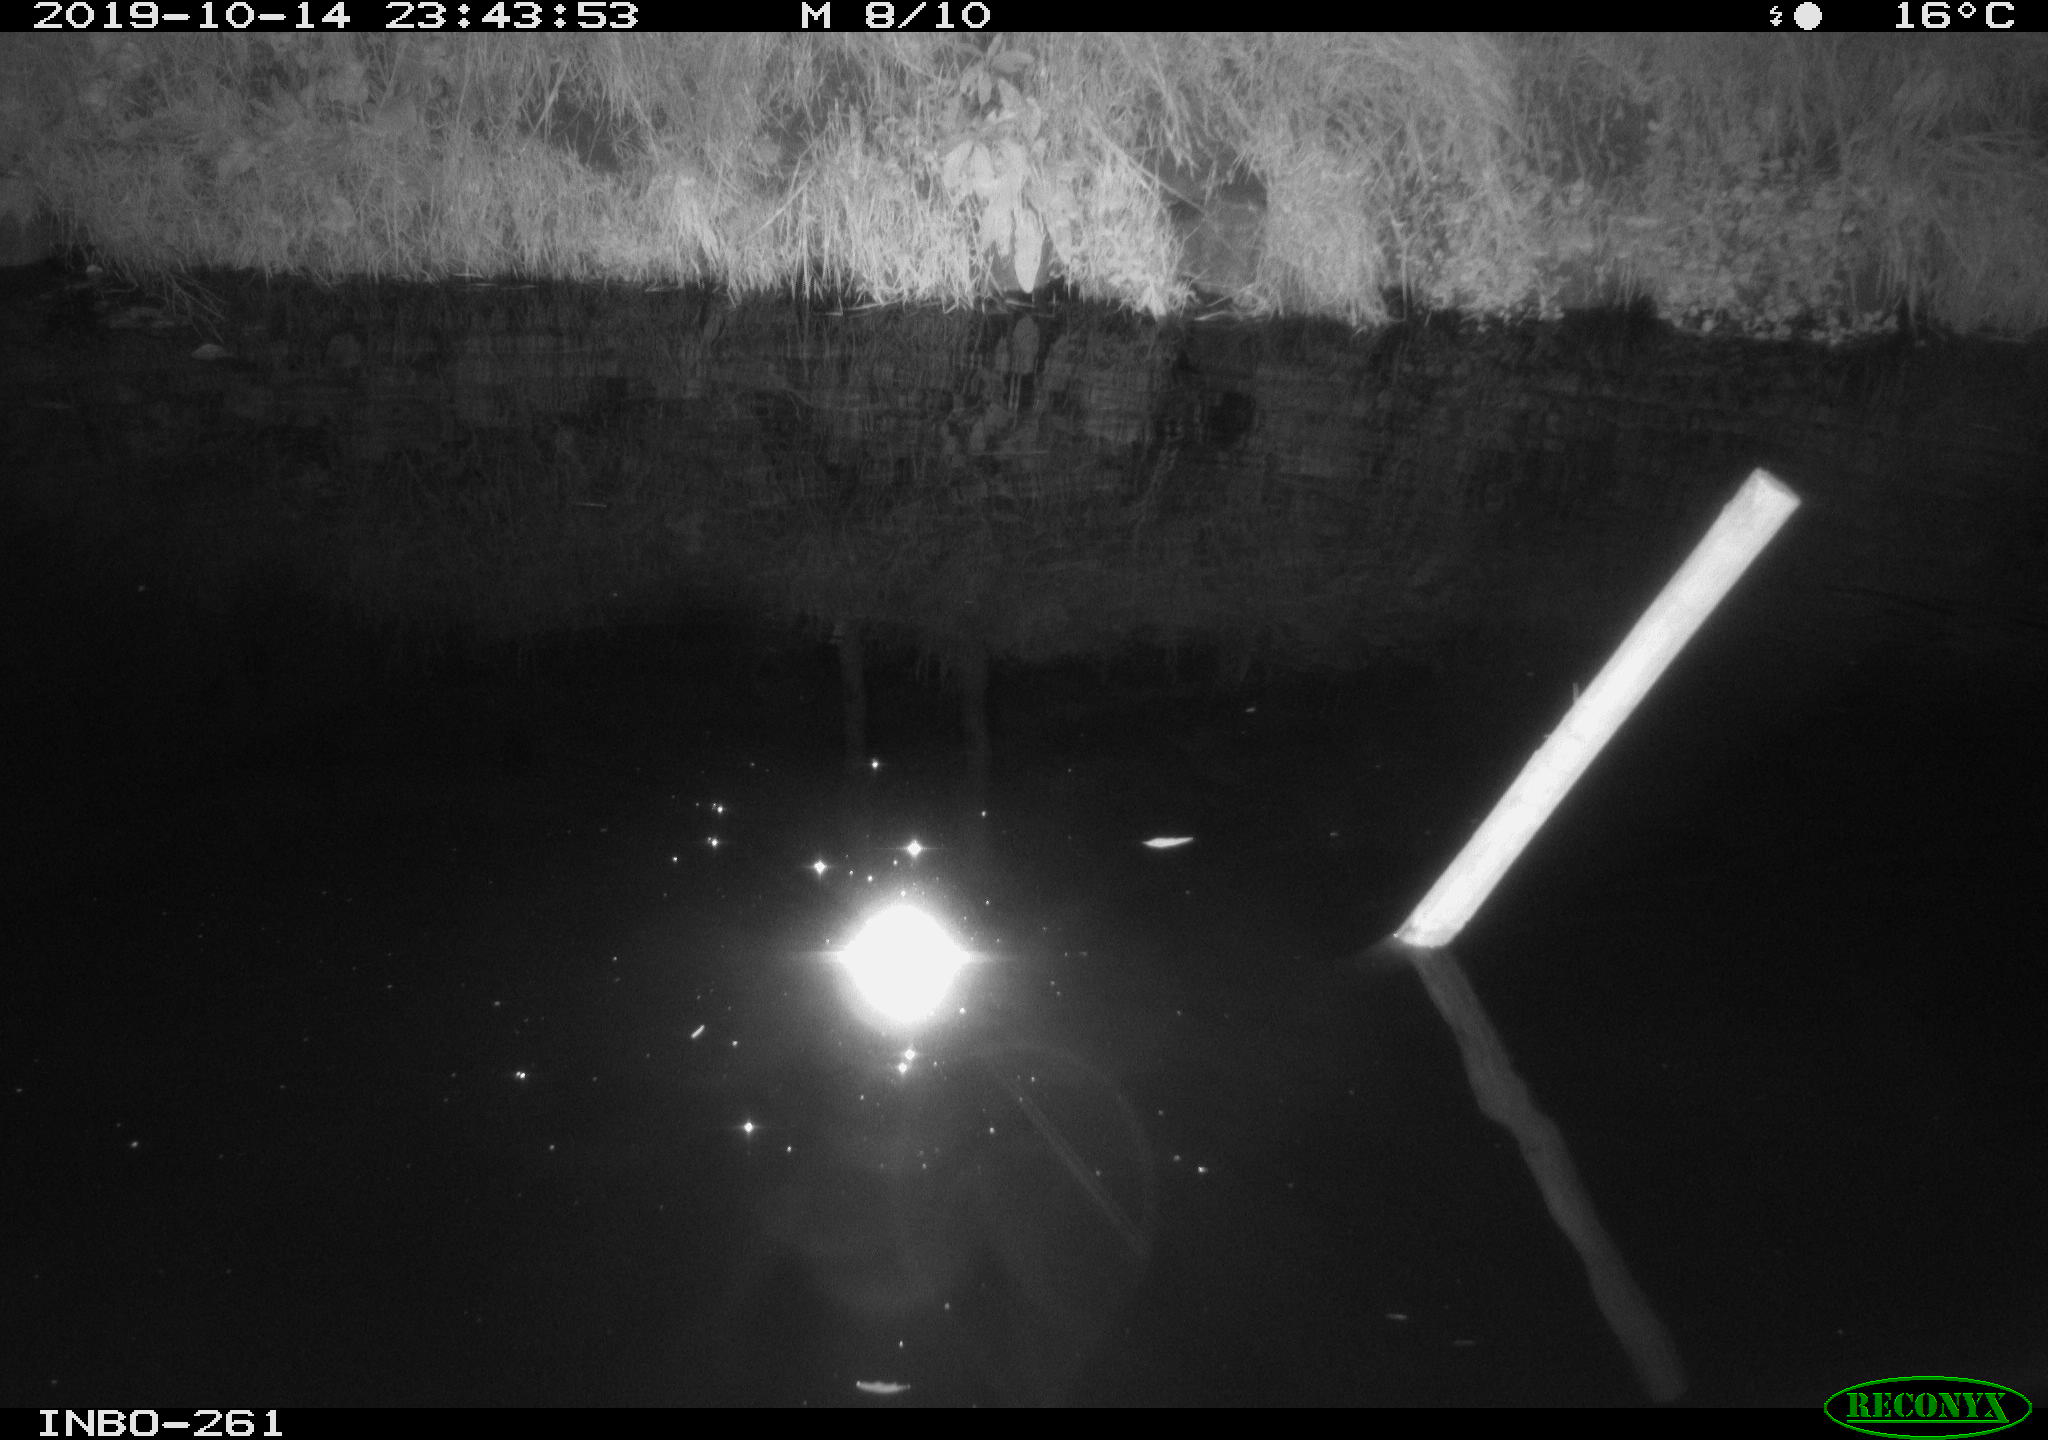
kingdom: Animalia
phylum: Chordata
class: Aves
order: Anseriformes
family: Anatidae
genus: Anas
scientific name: Anas platyrhynchos
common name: Mallard
